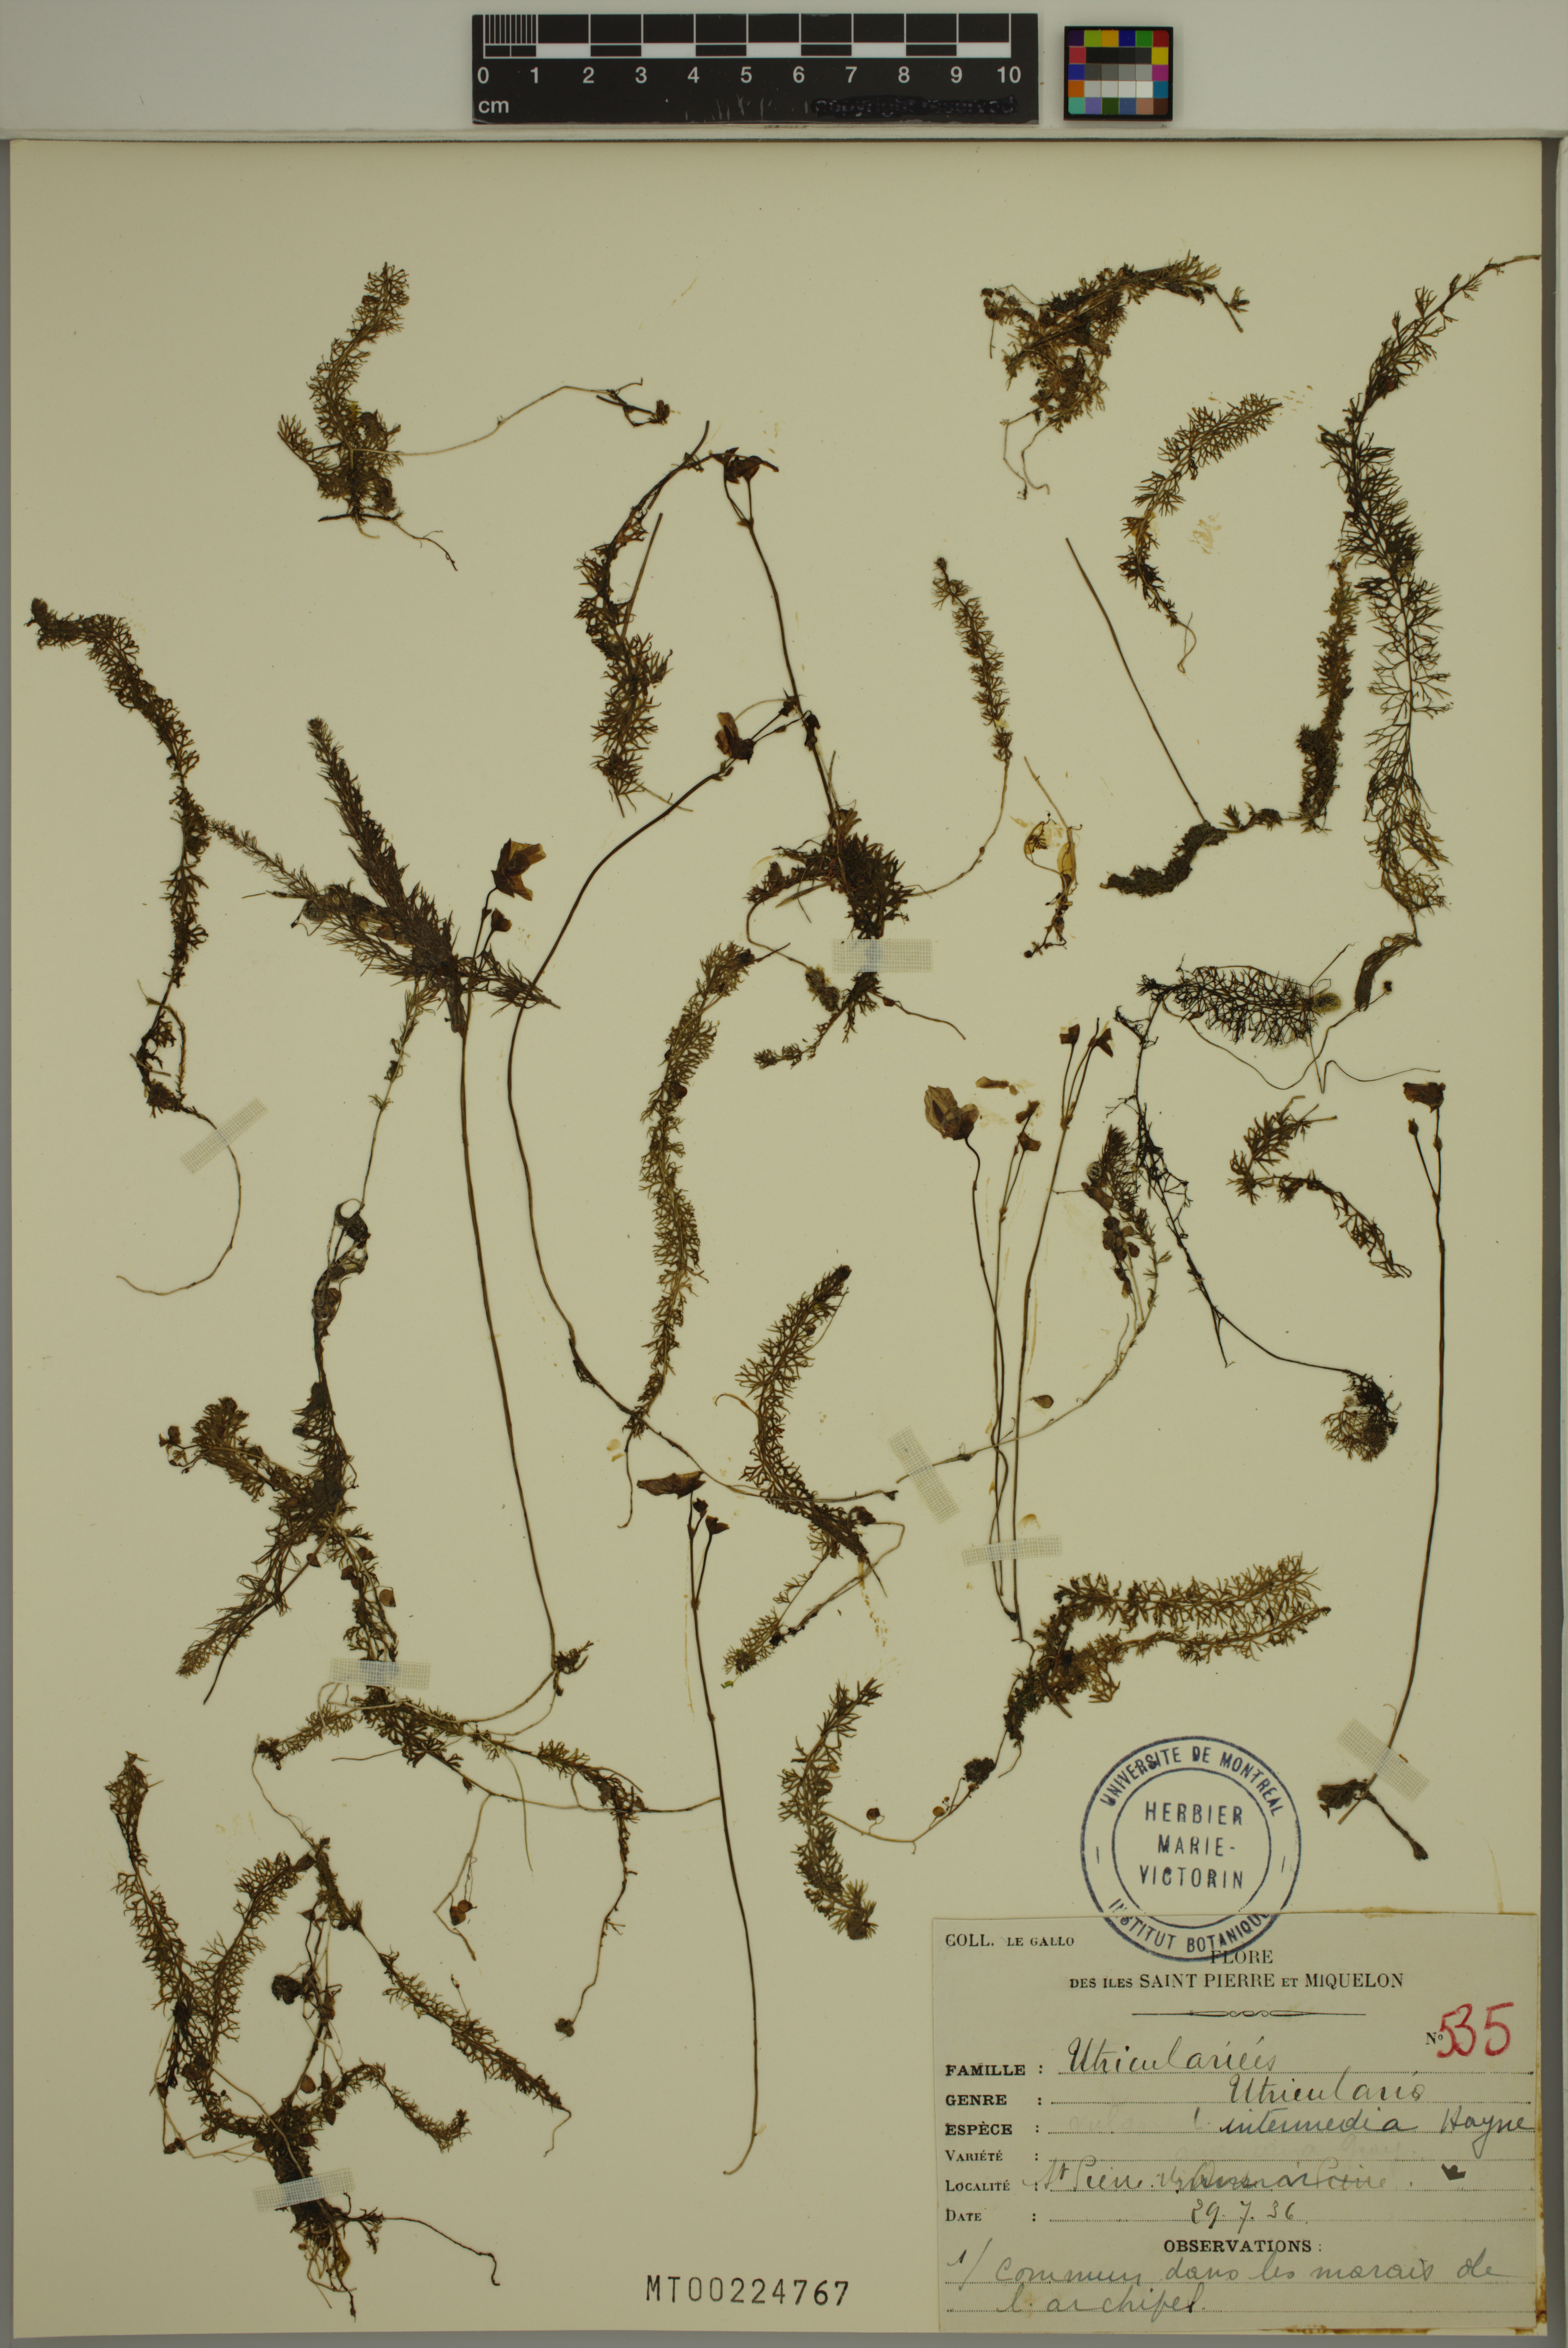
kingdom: Plantae
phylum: Tracheophyta
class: Magnoliopsida
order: Lamiales
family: Lentibulariaceae
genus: Utricularia
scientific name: Utricularia intermedia
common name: Intermediate bladderwort
